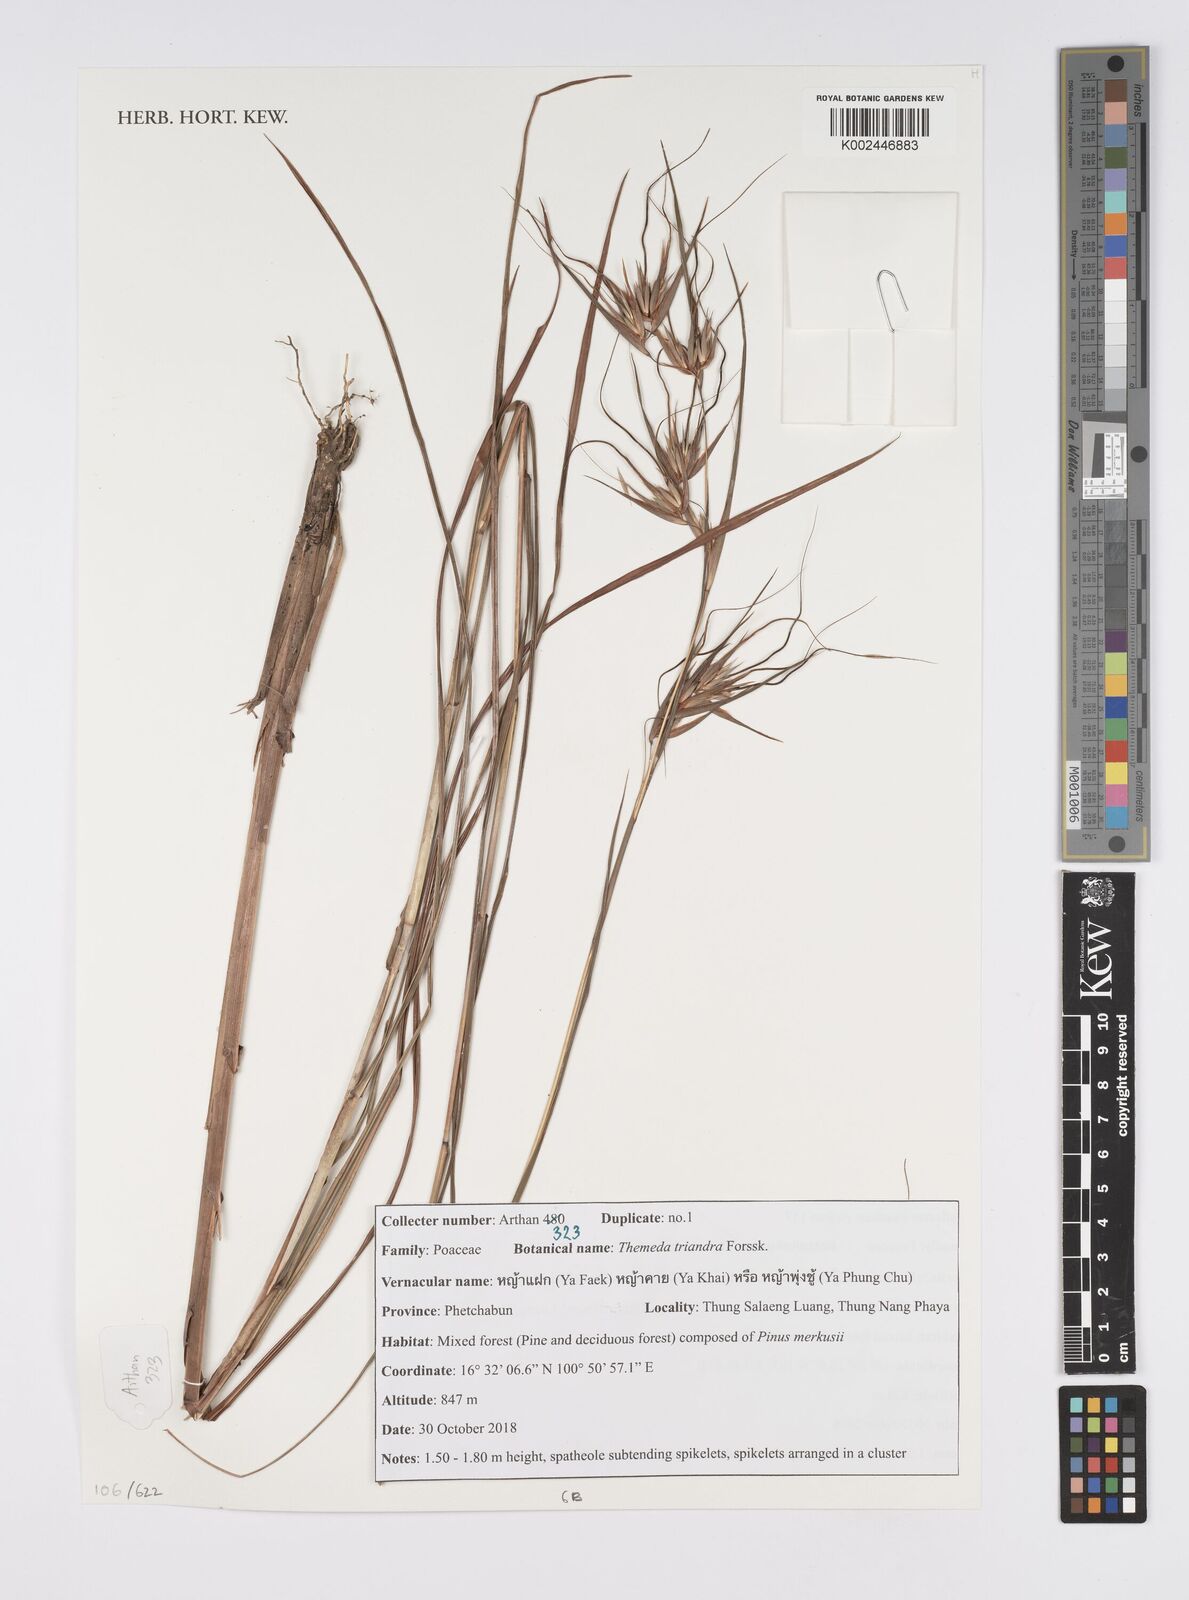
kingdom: Plantae
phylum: Tracheophyta
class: Liliopsida
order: Poales
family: Poaceae
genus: Themeda
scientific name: Themeda triandra
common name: Kangaroo grass
